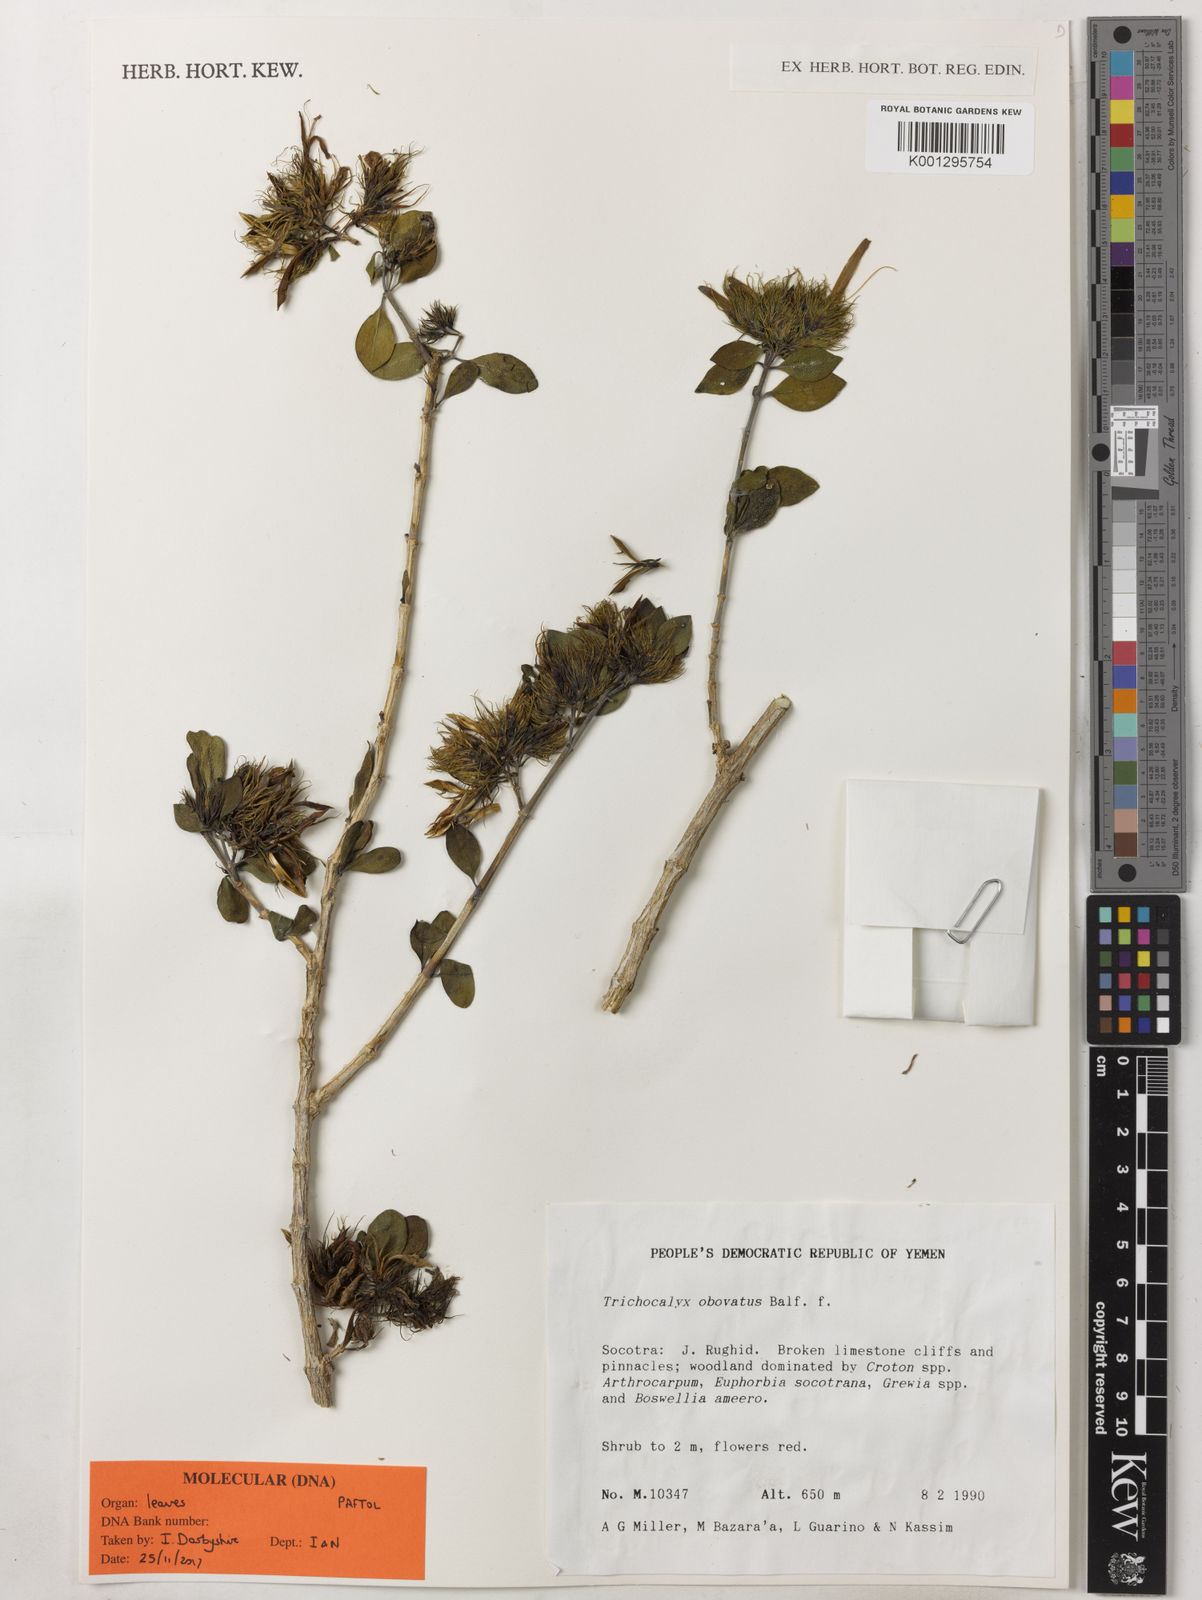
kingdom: Plantae
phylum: Tracheophyta
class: Magnoliopsida
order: Lamiales
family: Acanthaceae
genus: Trichocalyx
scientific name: Trichocalyx obovatus
